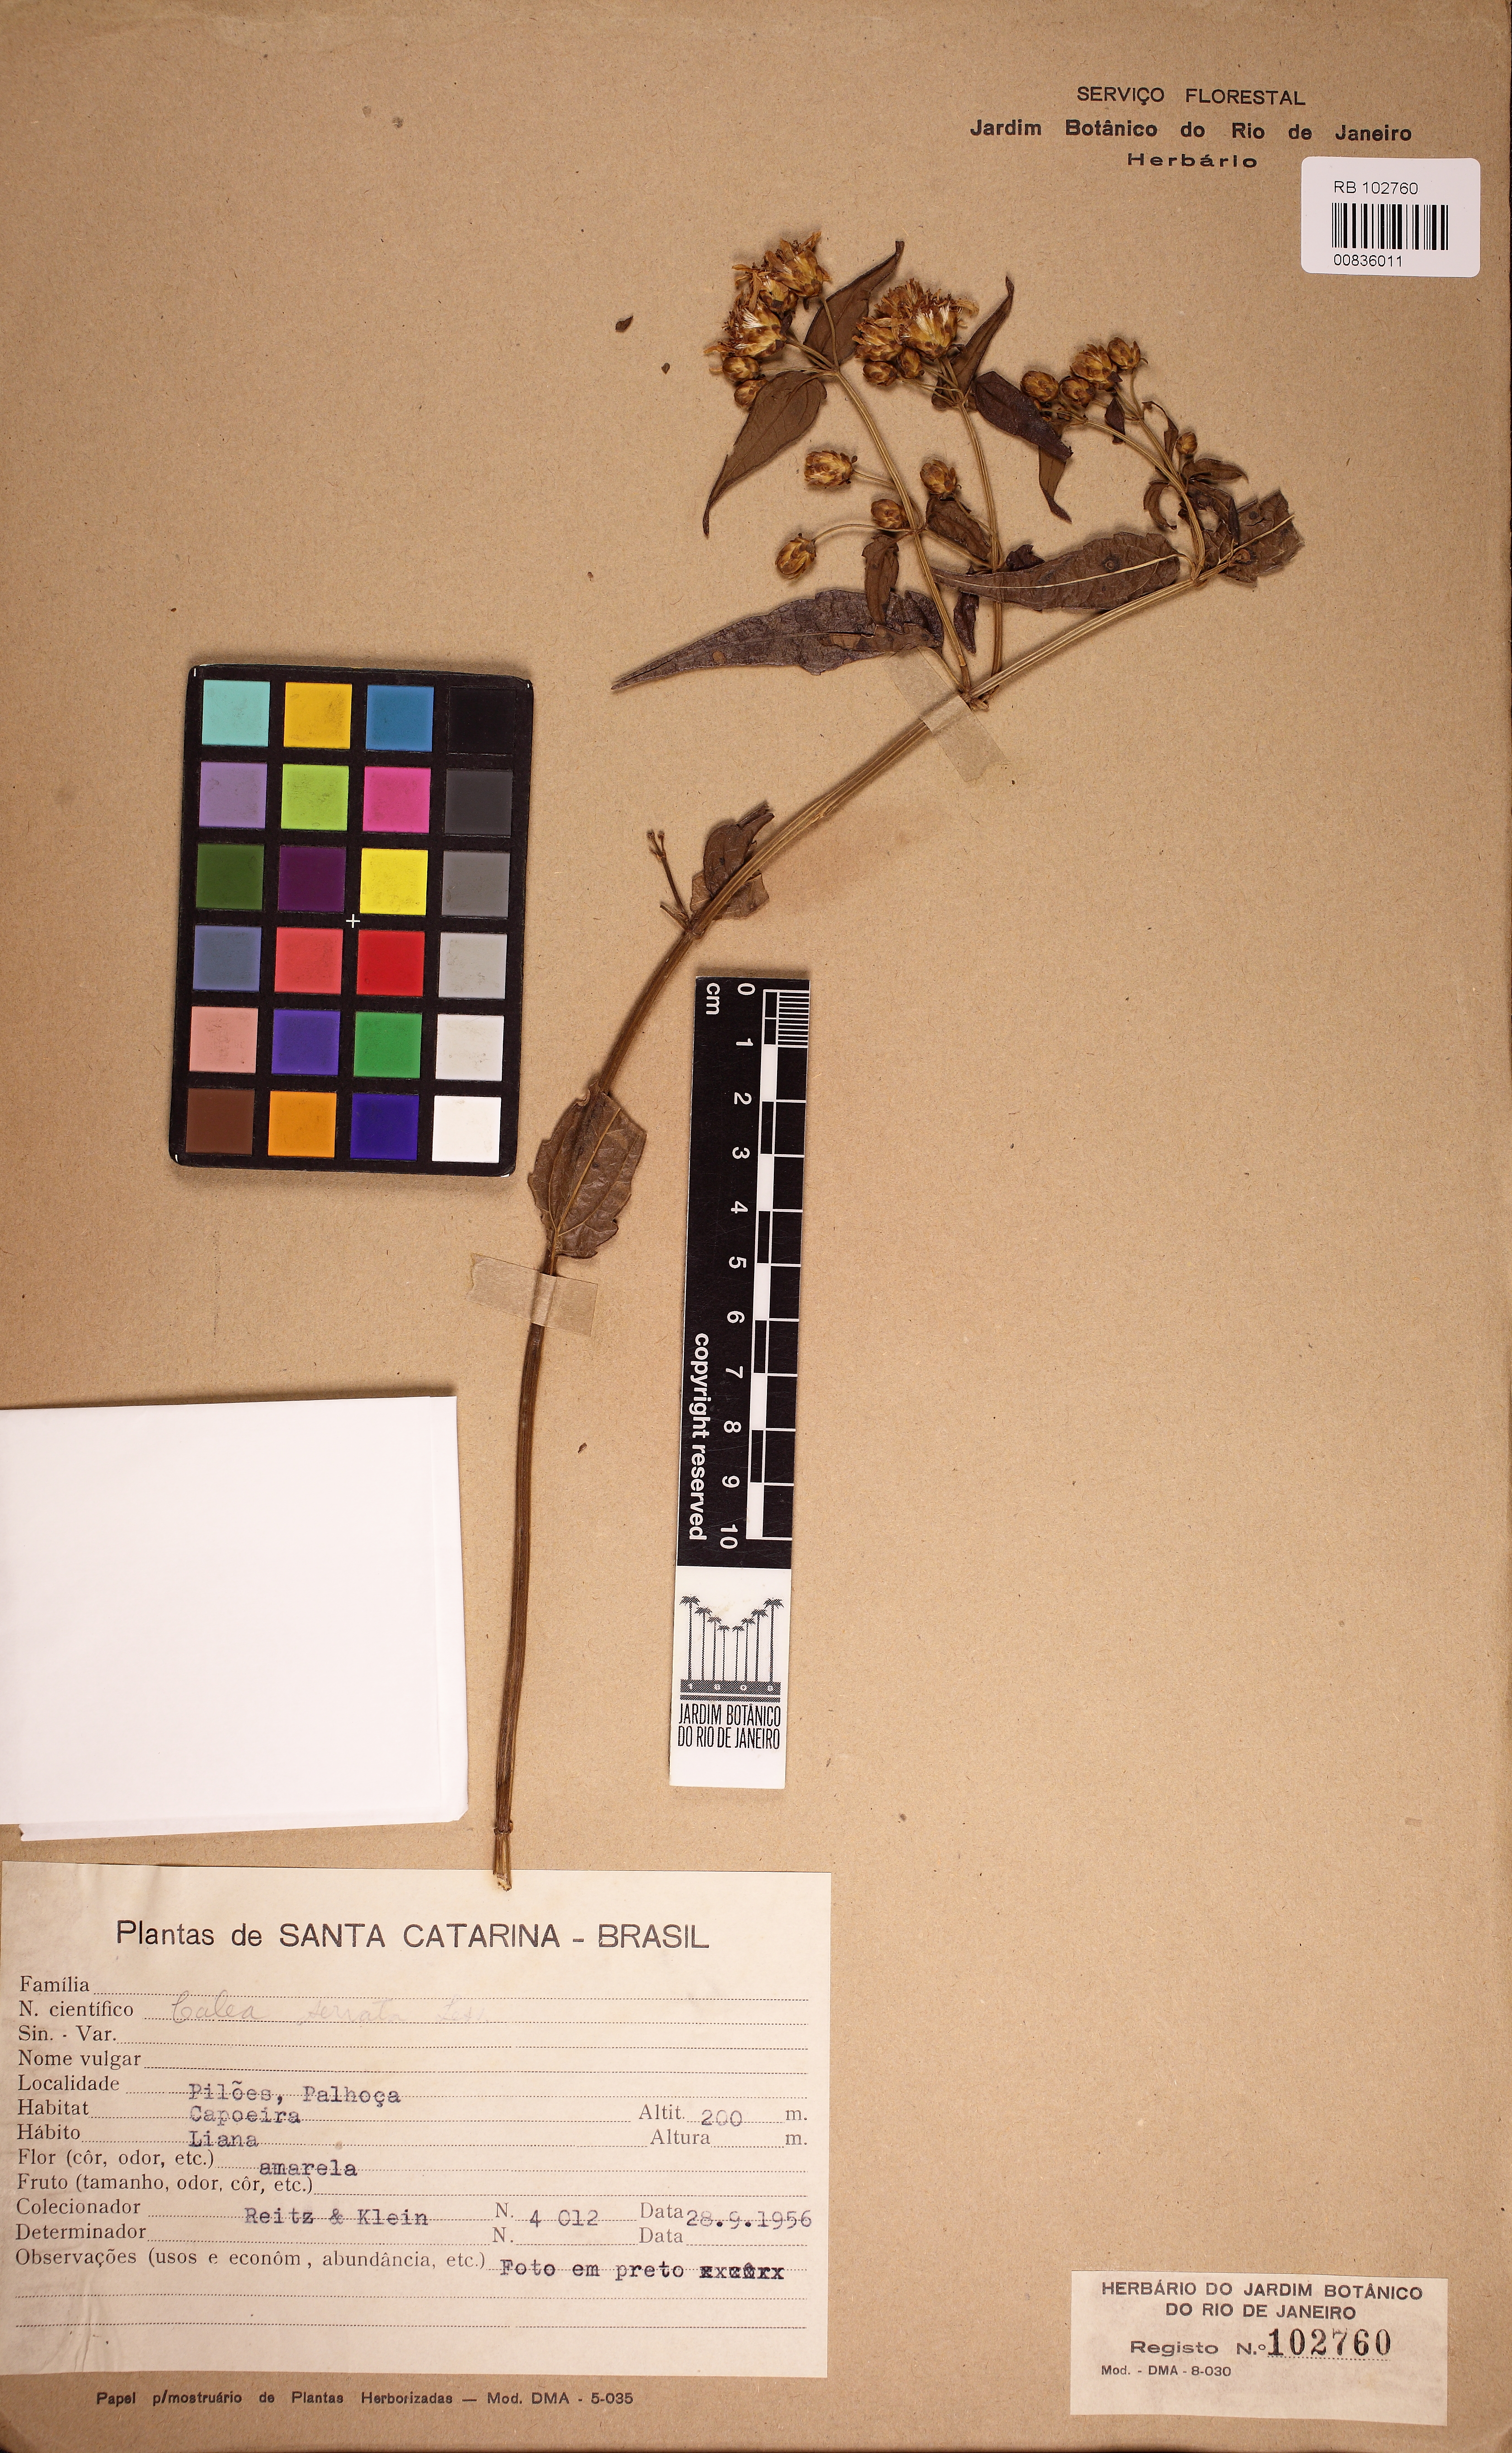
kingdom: Plantae
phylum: Tracheophyta
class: Magnoliopsida
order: Asterales
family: Asteraceae
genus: Calea
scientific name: Calea pinnatifida
